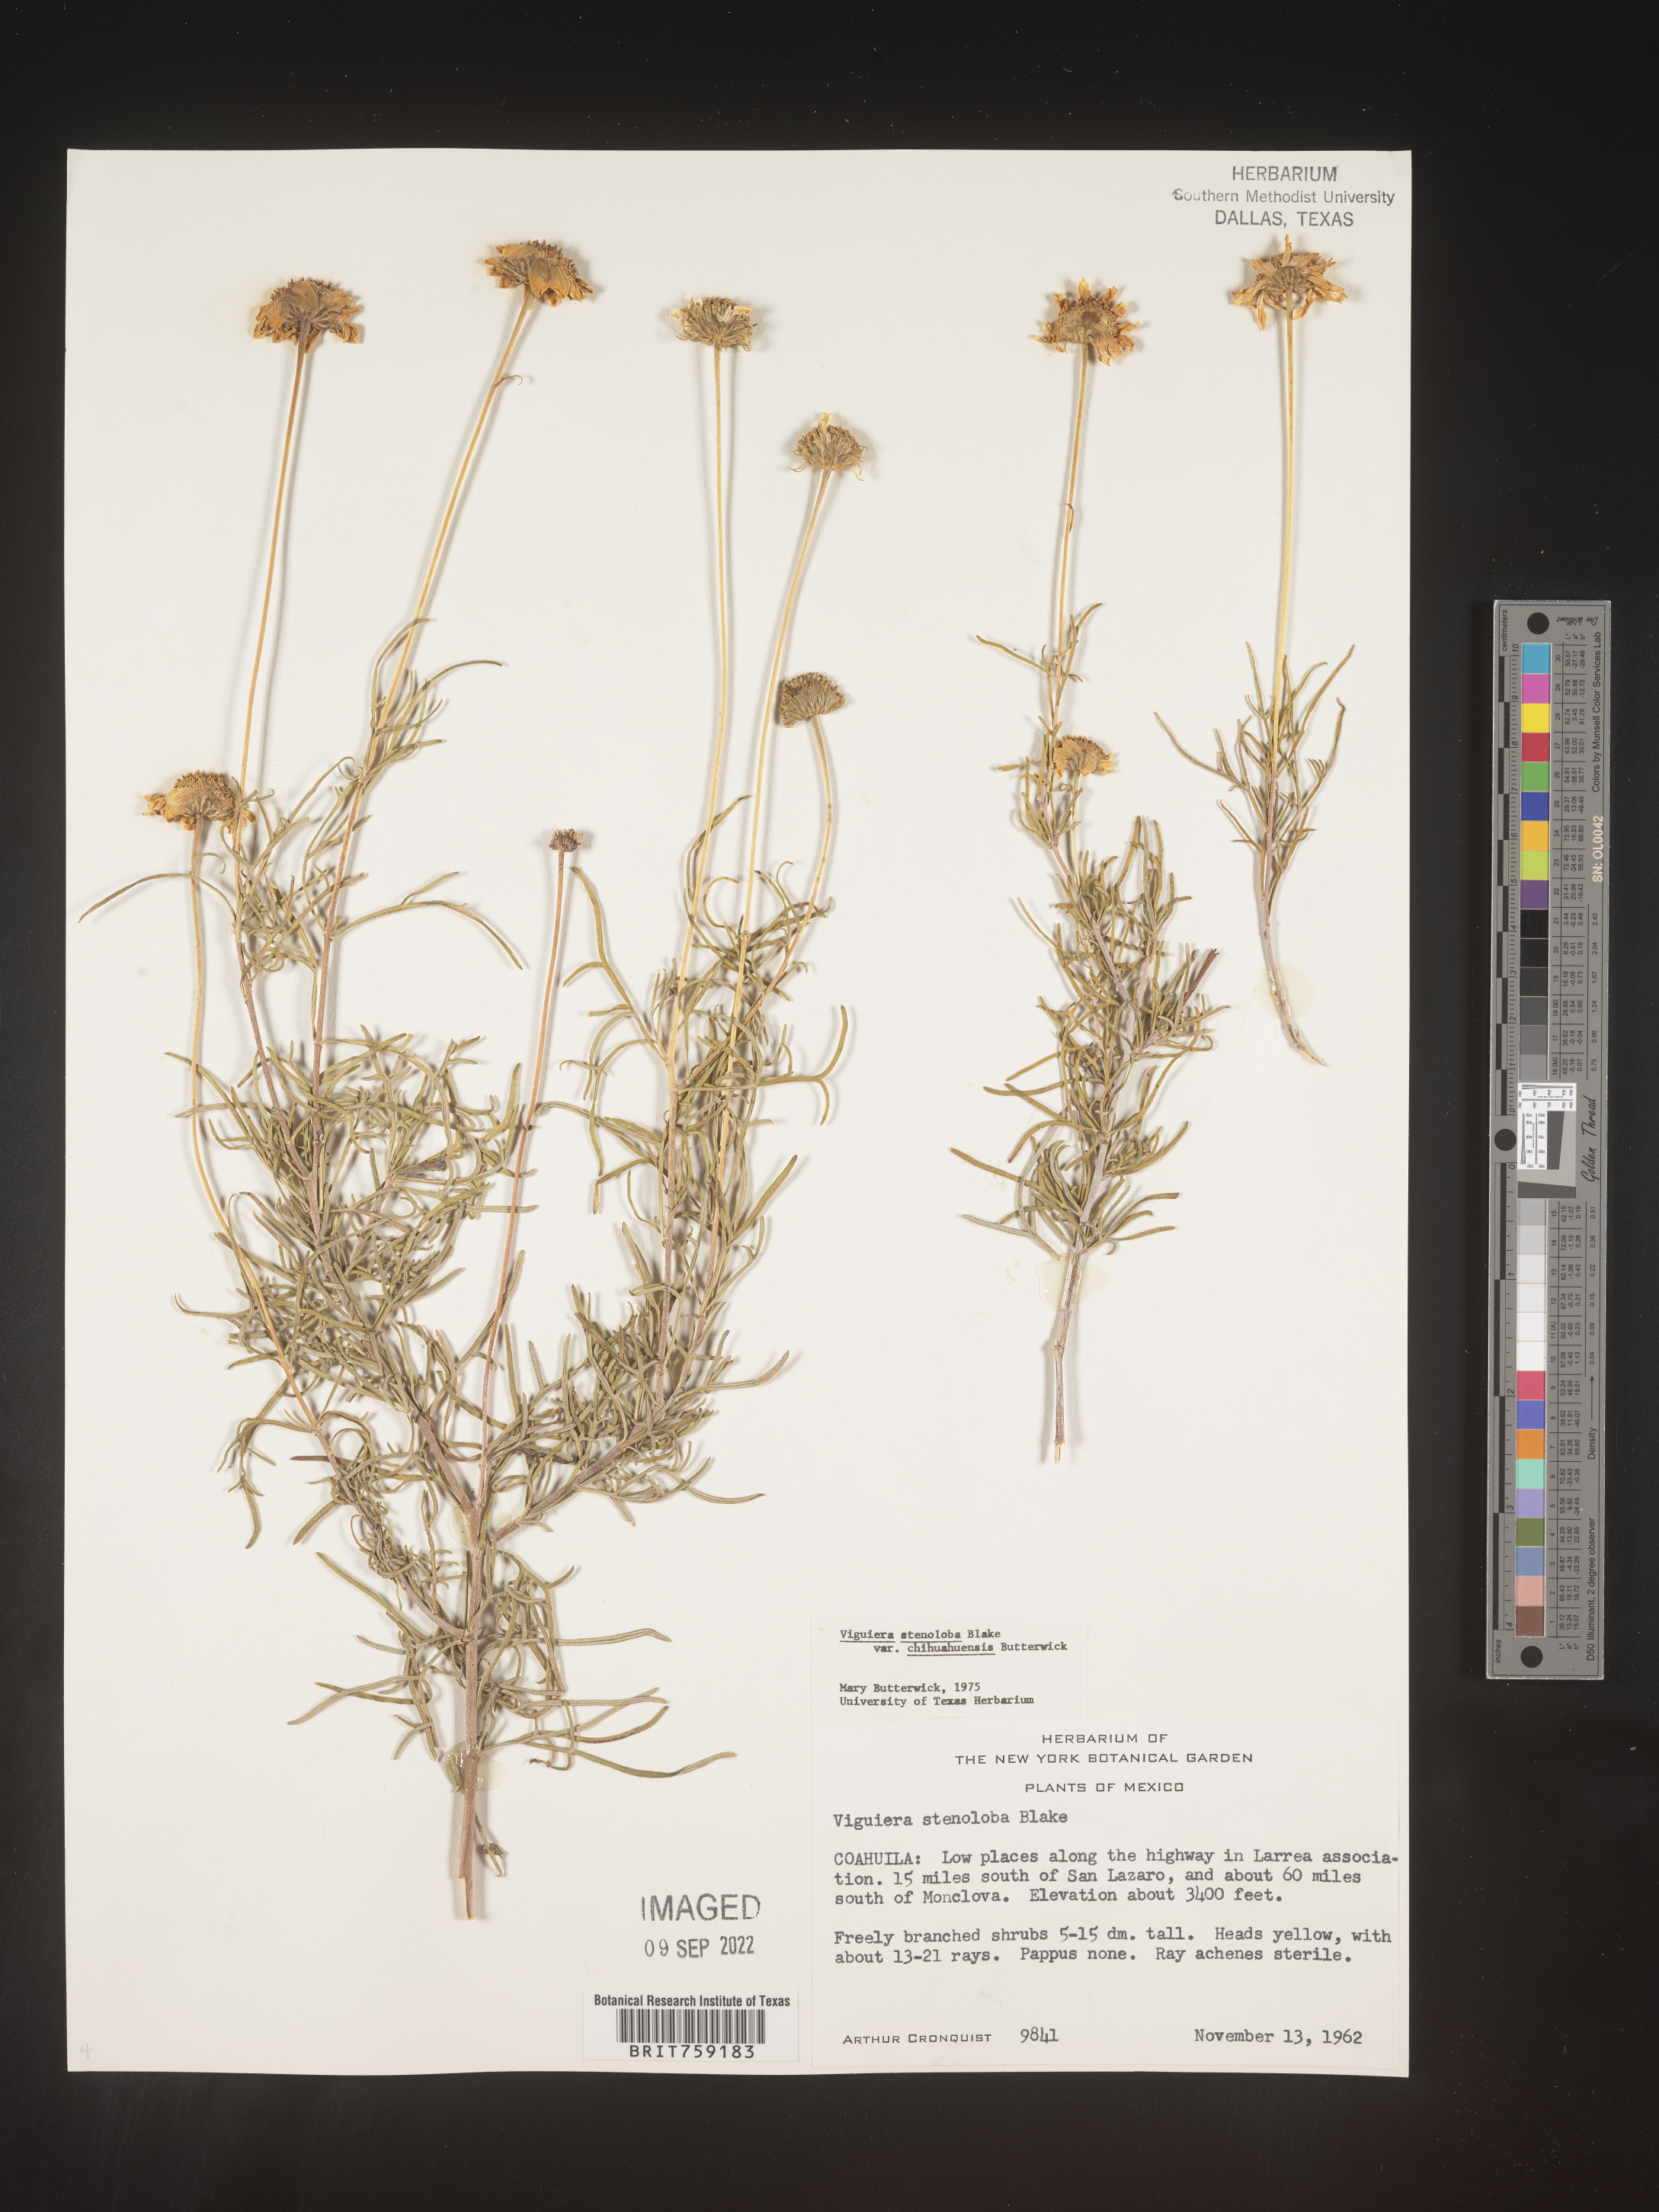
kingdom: Plantae
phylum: Tracheophyta
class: Magnoliopsida
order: Asterales
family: Asteraceae
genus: Viguiera
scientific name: Viguiera
